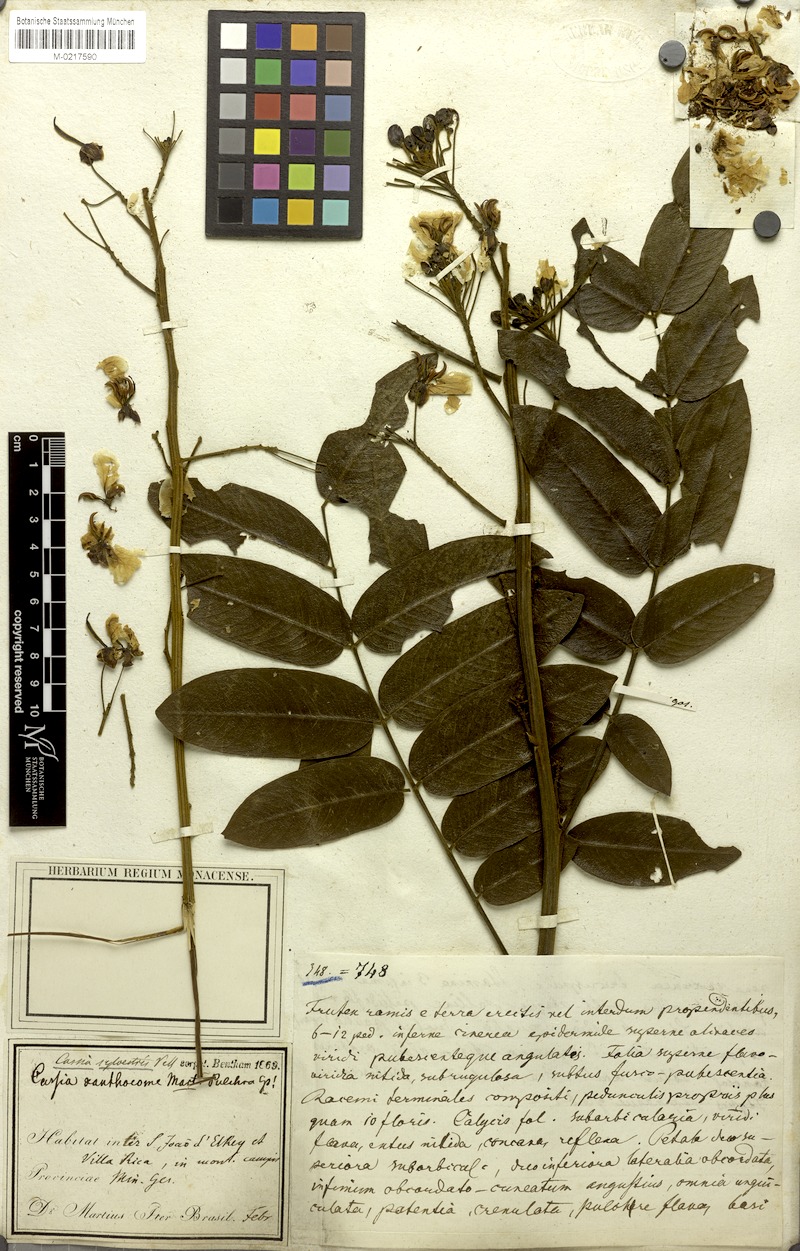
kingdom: Plantae
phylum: Tracheophyta
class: Magnoliopsida
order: Fabales
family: Fabaceae
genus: Senna
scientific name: Senna silvestris
